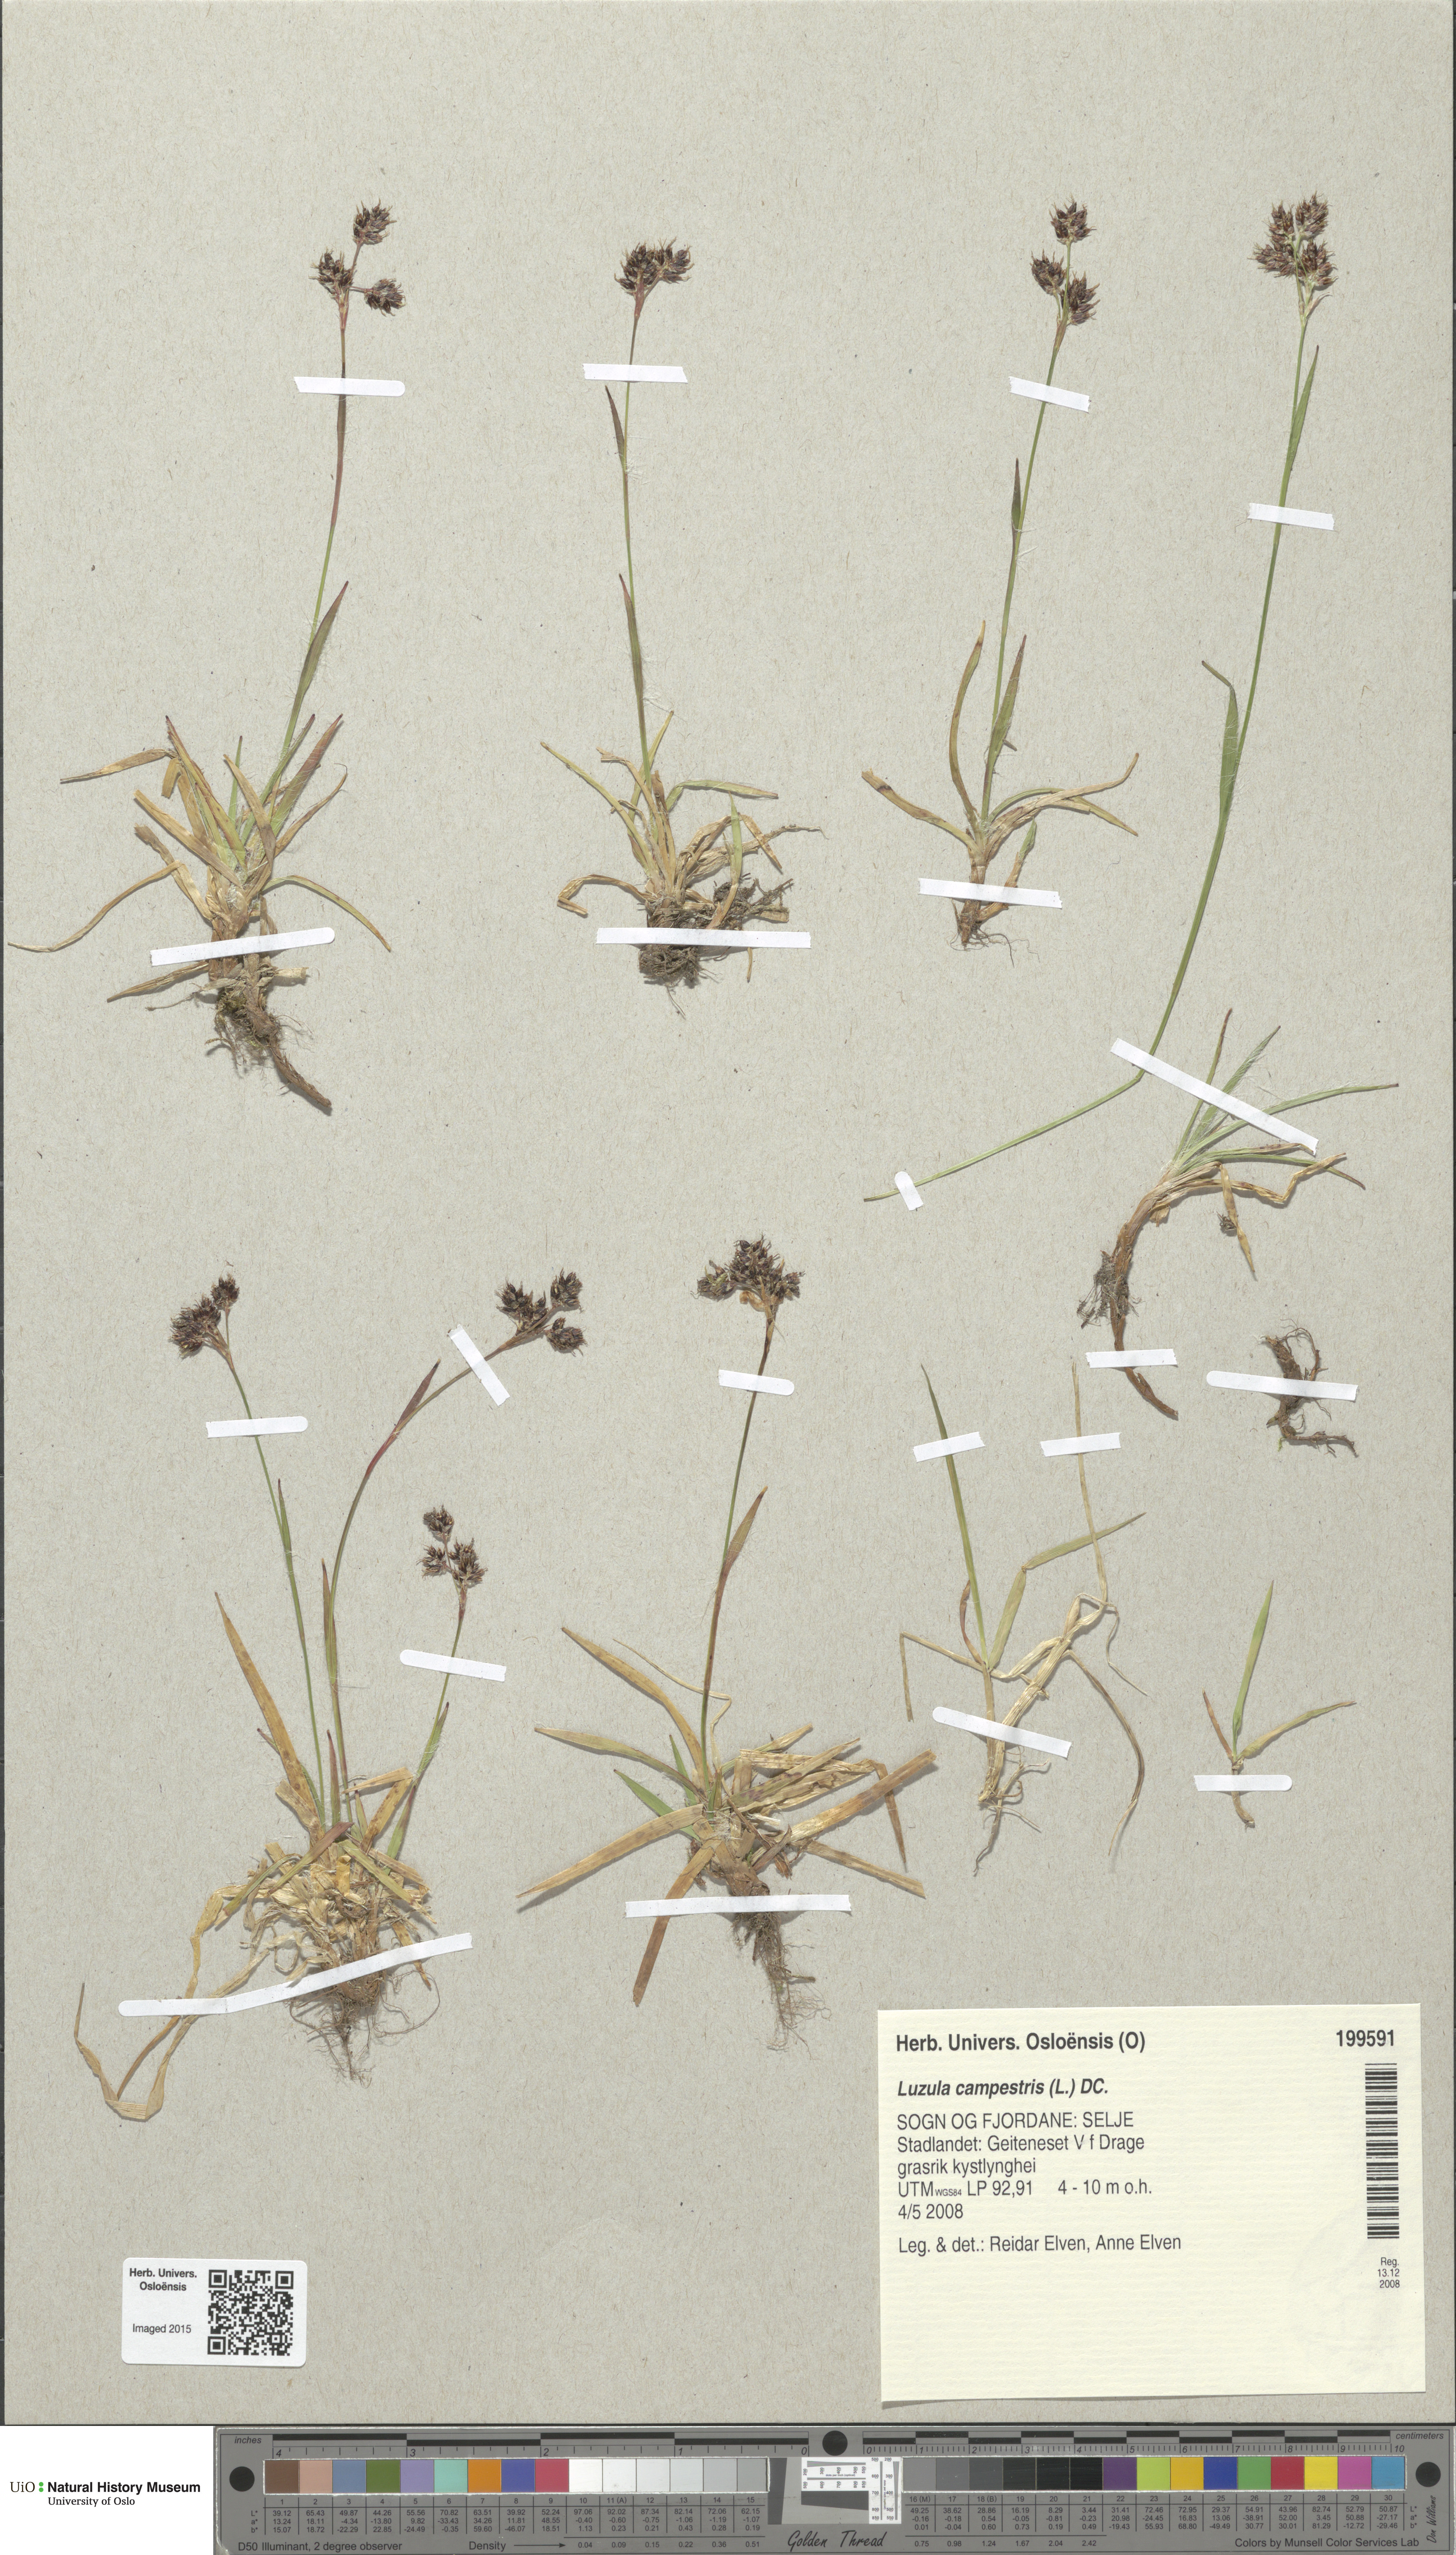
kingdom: Plantae
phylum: Tracheophyta
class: Liliopsida
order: Poales
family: Juncaceae
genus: Luzula
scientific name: Luzula campestris
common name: Field wood-rush
